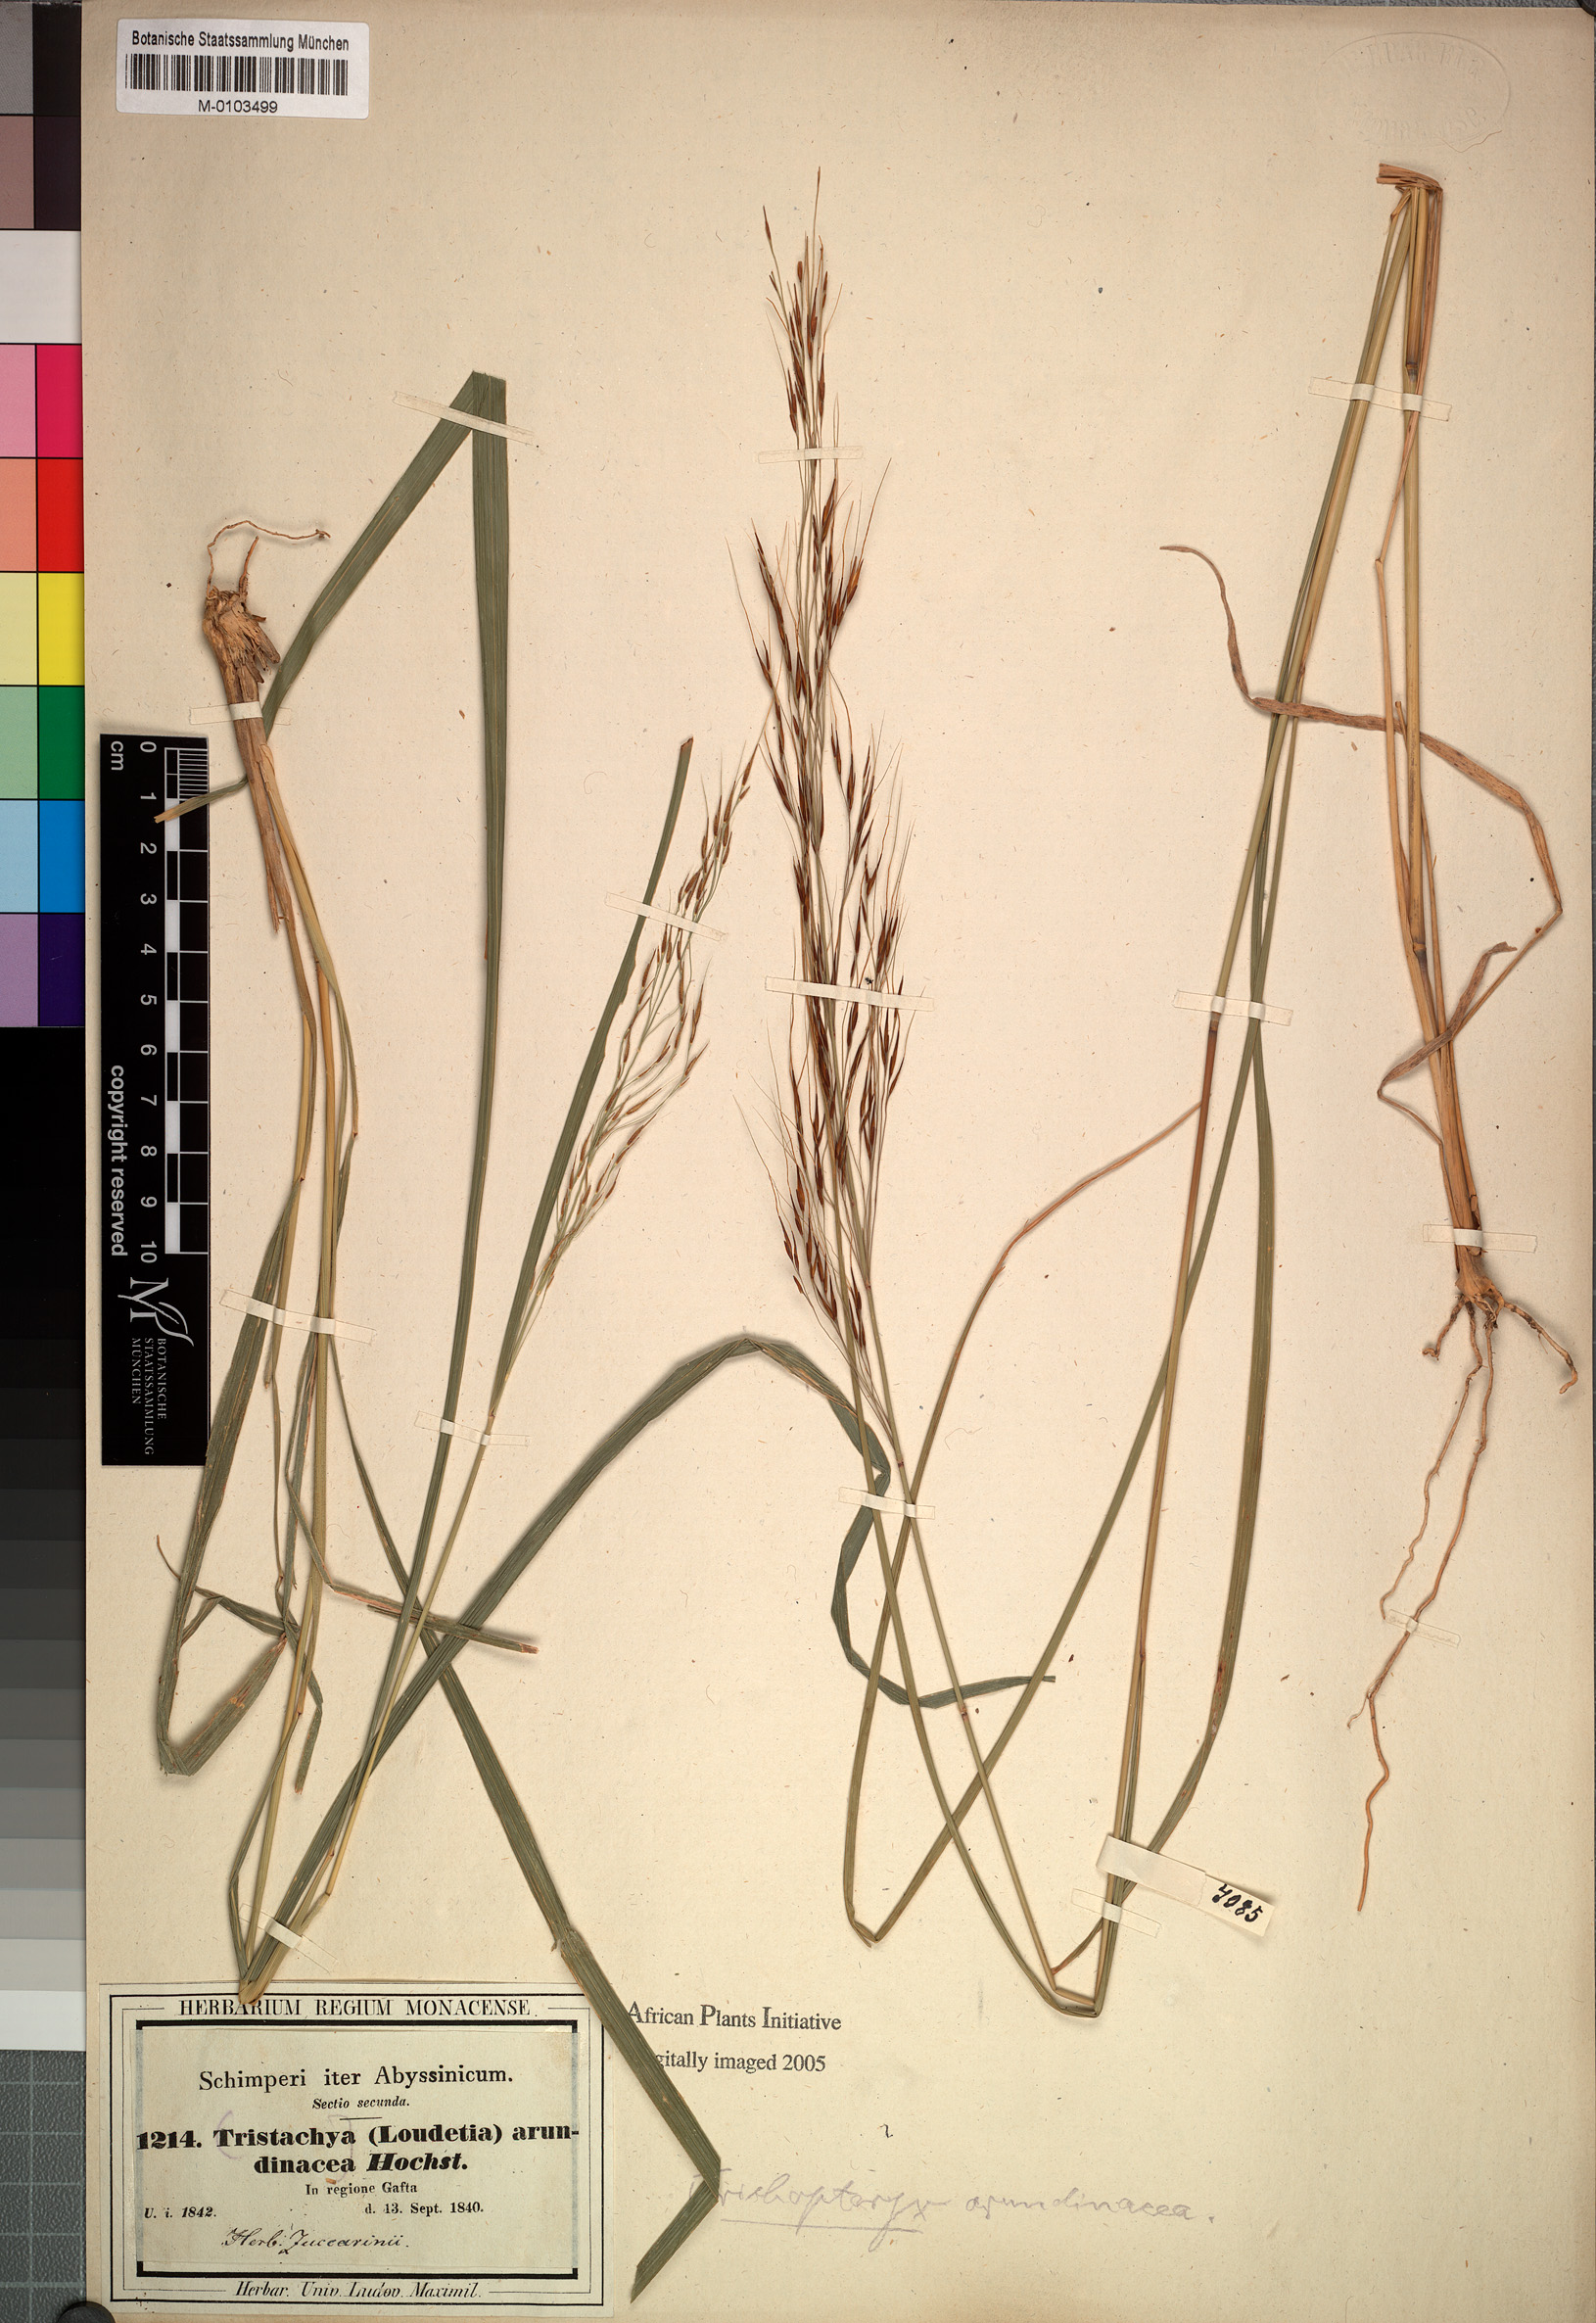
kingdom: Plantae
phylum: Tracheophyta
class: Liliopsida
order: Poales
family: Poaceae
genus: Loudetia
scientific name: Loudetia filifolia
